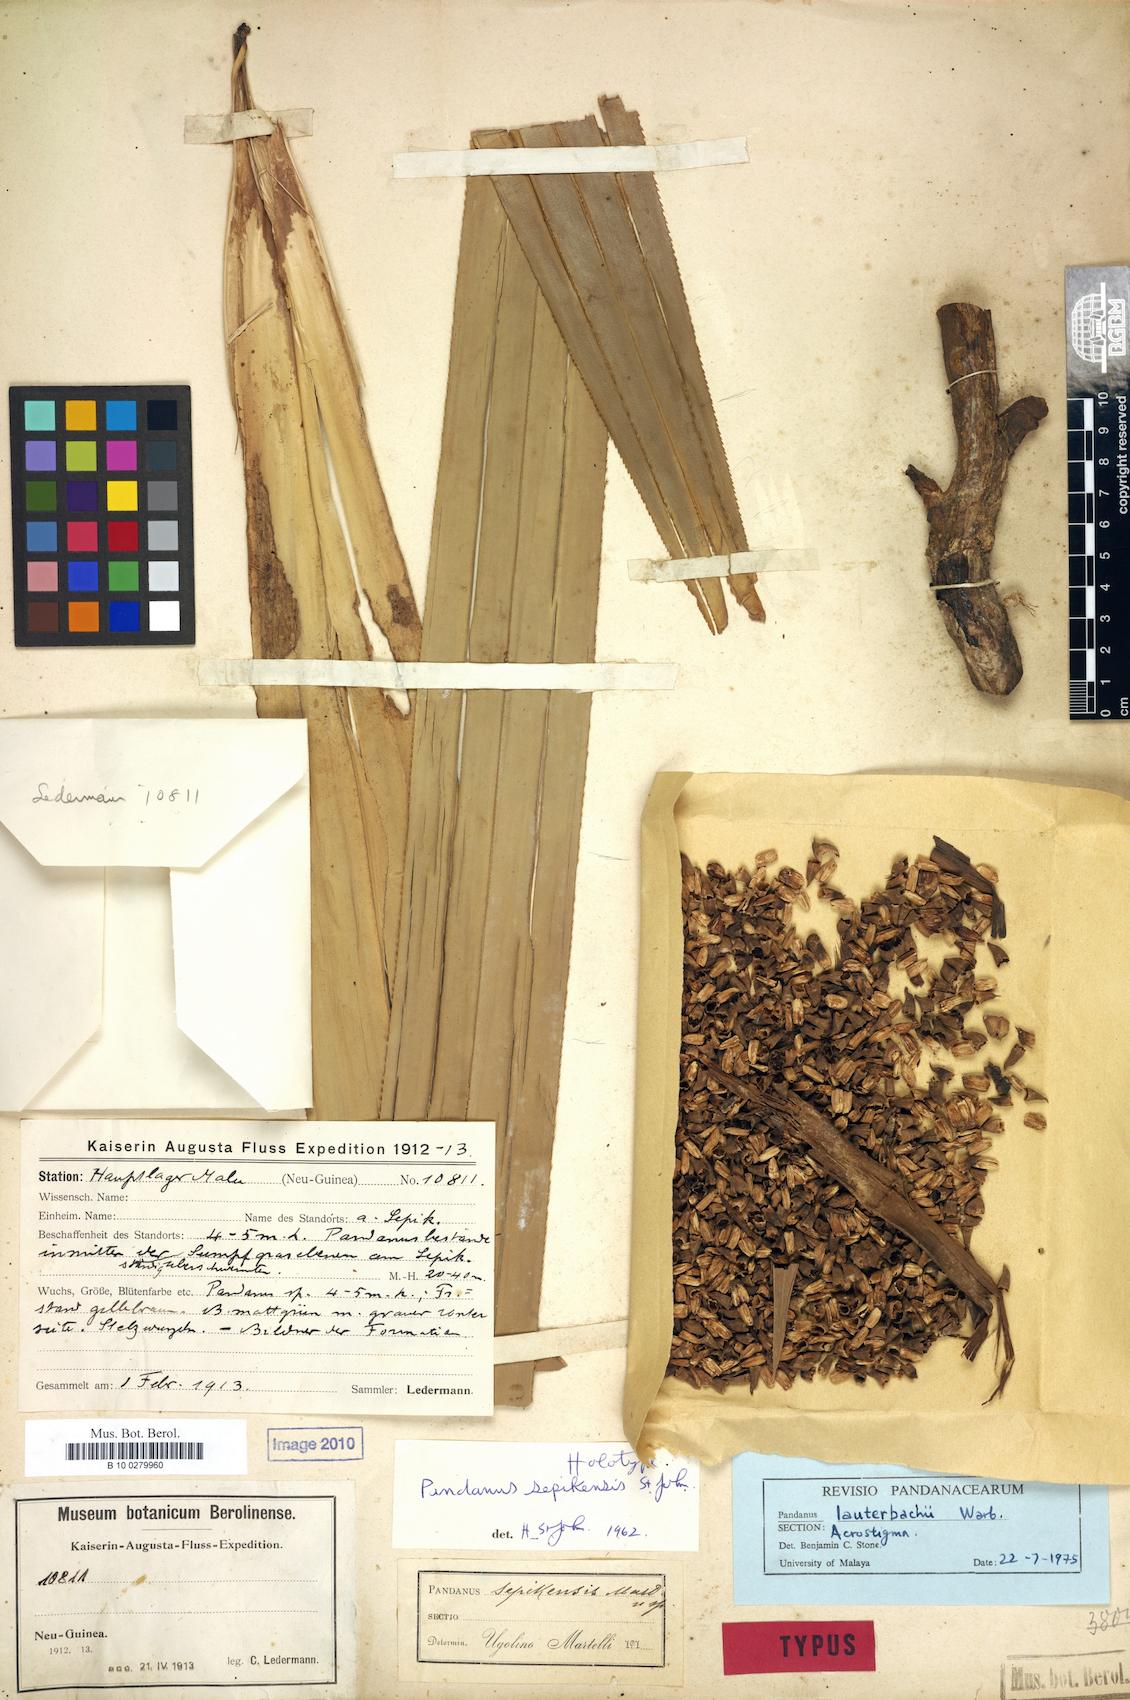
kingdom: Plantae
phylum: Tracheophyta
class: Liliopsida
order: Pandanales
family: Pandanaceae
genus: Benstonea
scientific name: Benstonea lauterbachii
